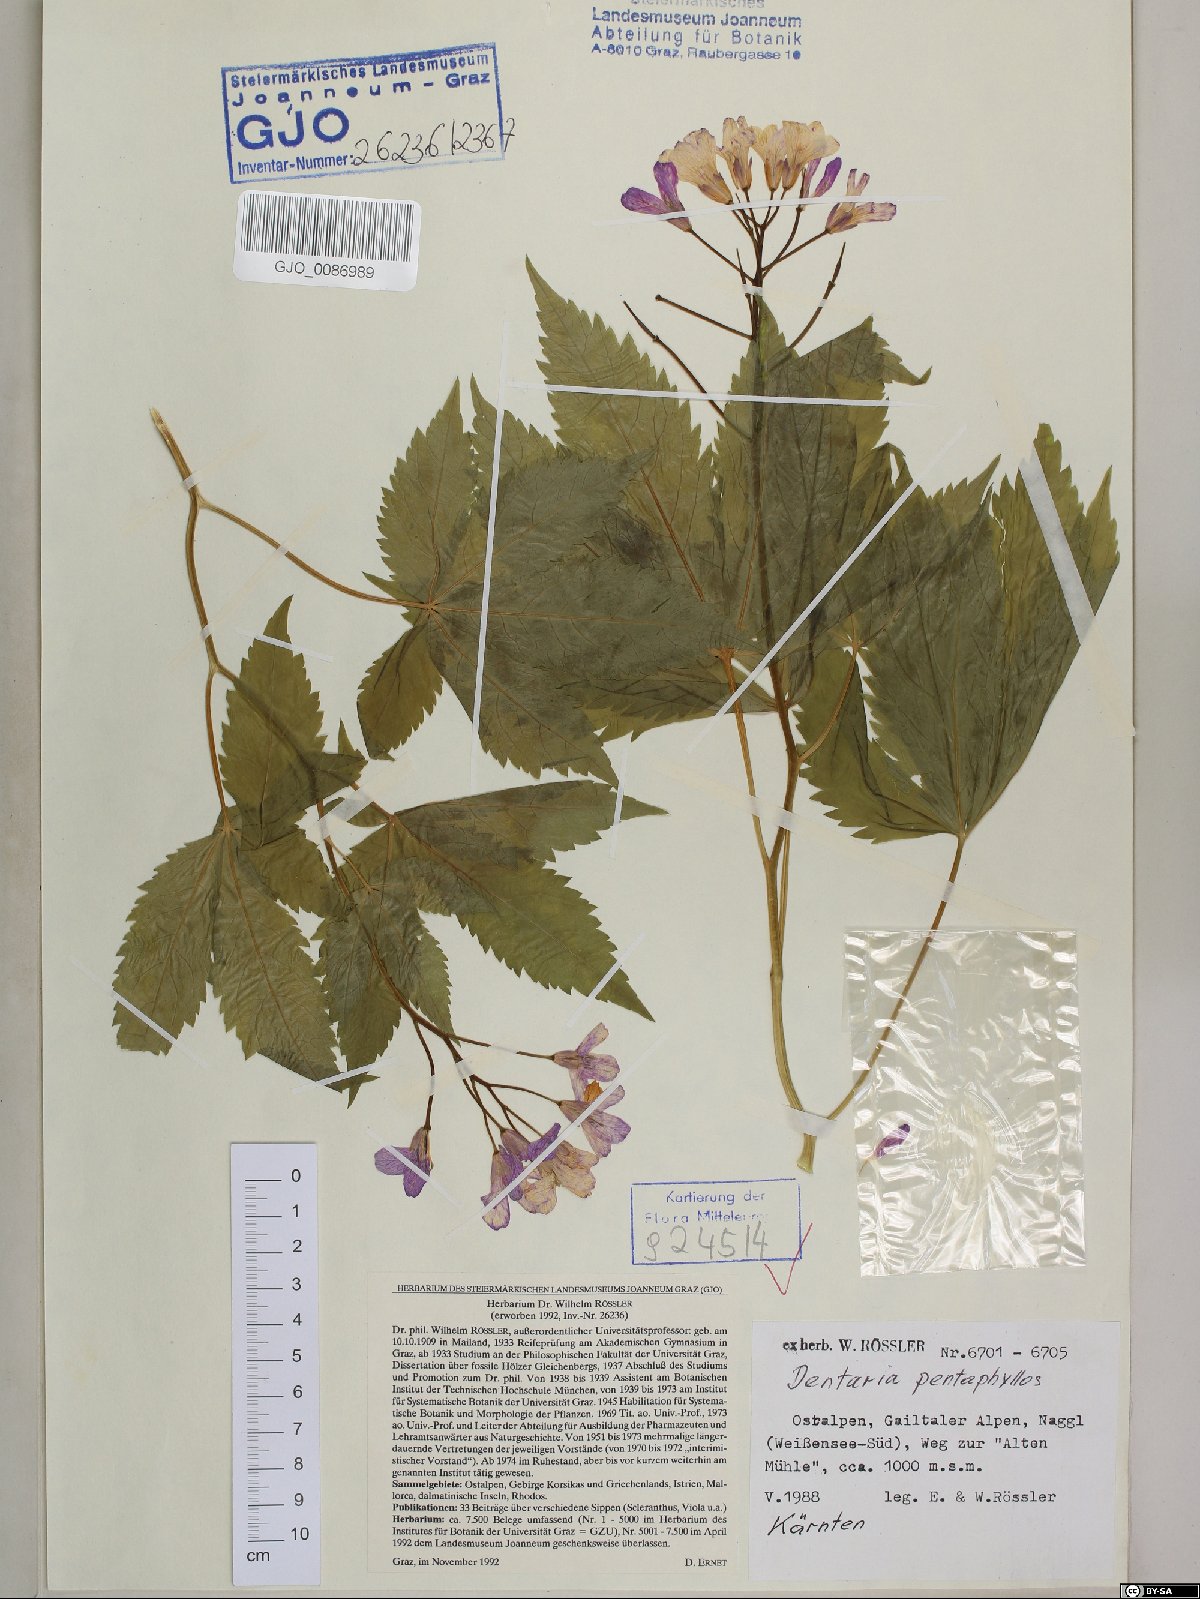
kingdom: Plantae
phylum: Tracheophyta
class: Magnoliopsida
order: Brassicales
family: Brassicaceae
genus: Cardamine
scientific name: Cardamine pentaphyllos
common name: Five-leaflet bitter-cress
